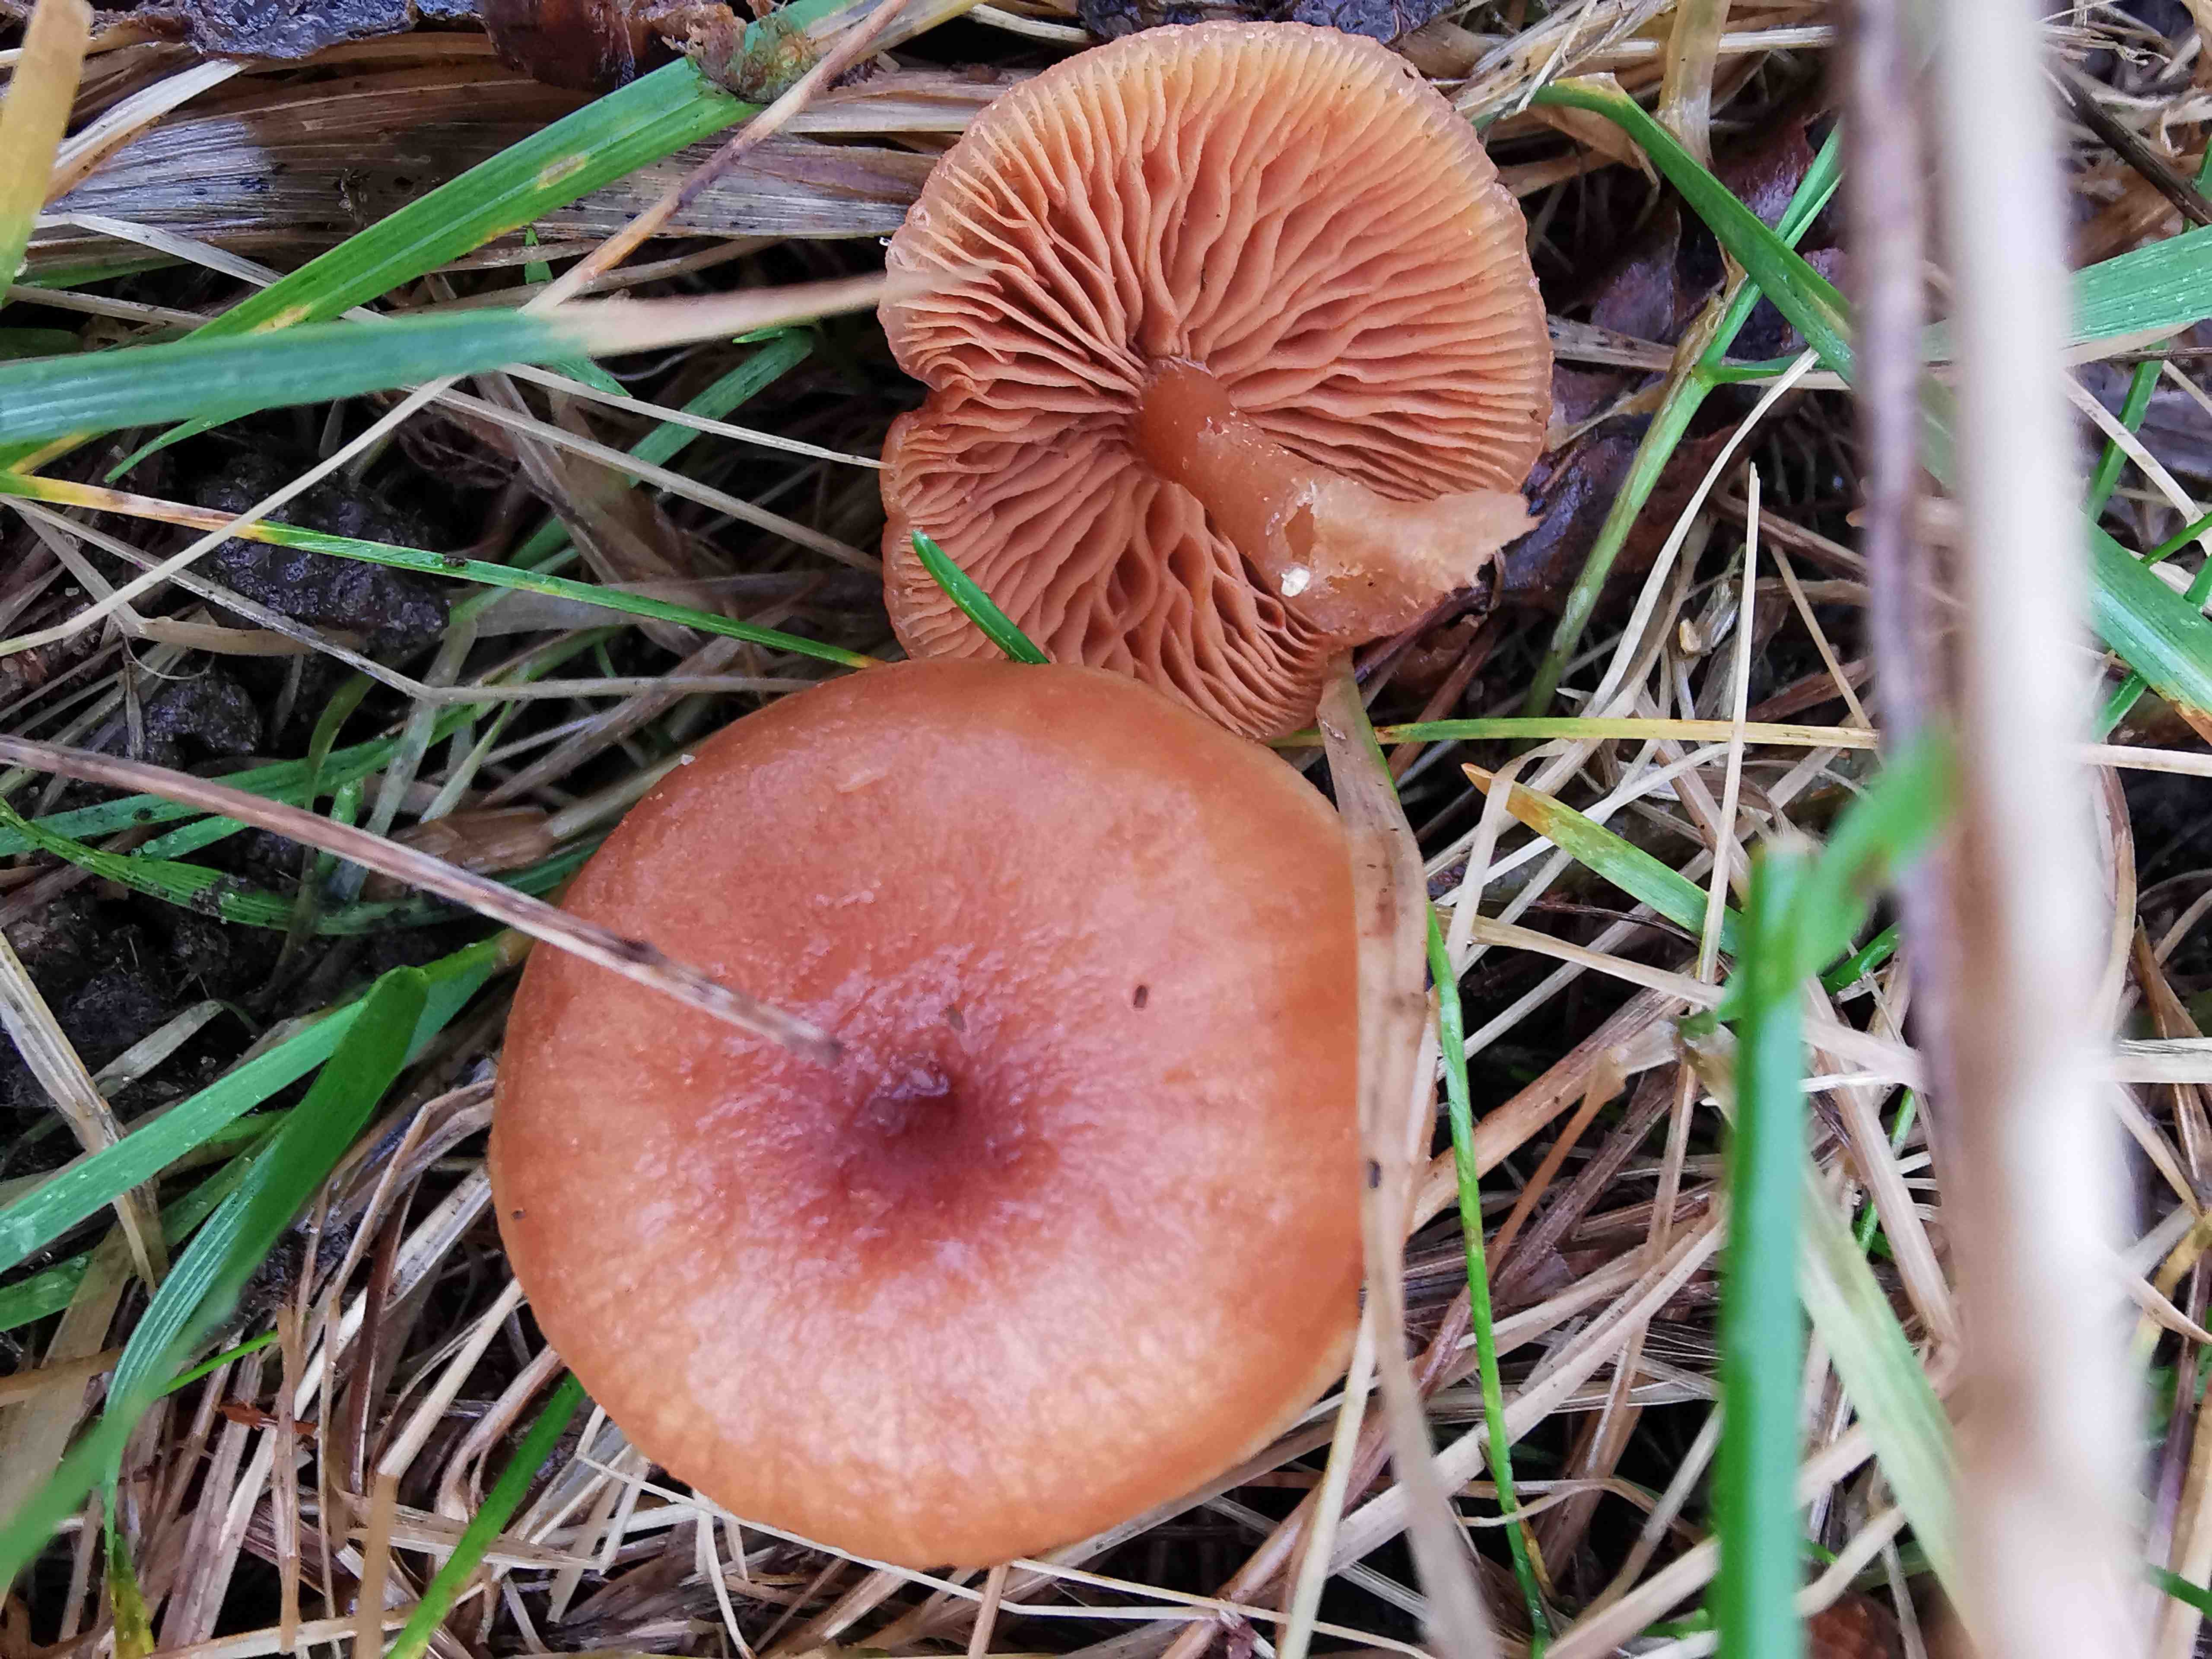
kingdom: Fungi
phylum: Basidiomycota
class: Agaricomycetes
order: Agaricales
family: Tubariaceae
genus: Tubaria
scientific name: Tubaria furfuracea
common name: kliddet fnughat
